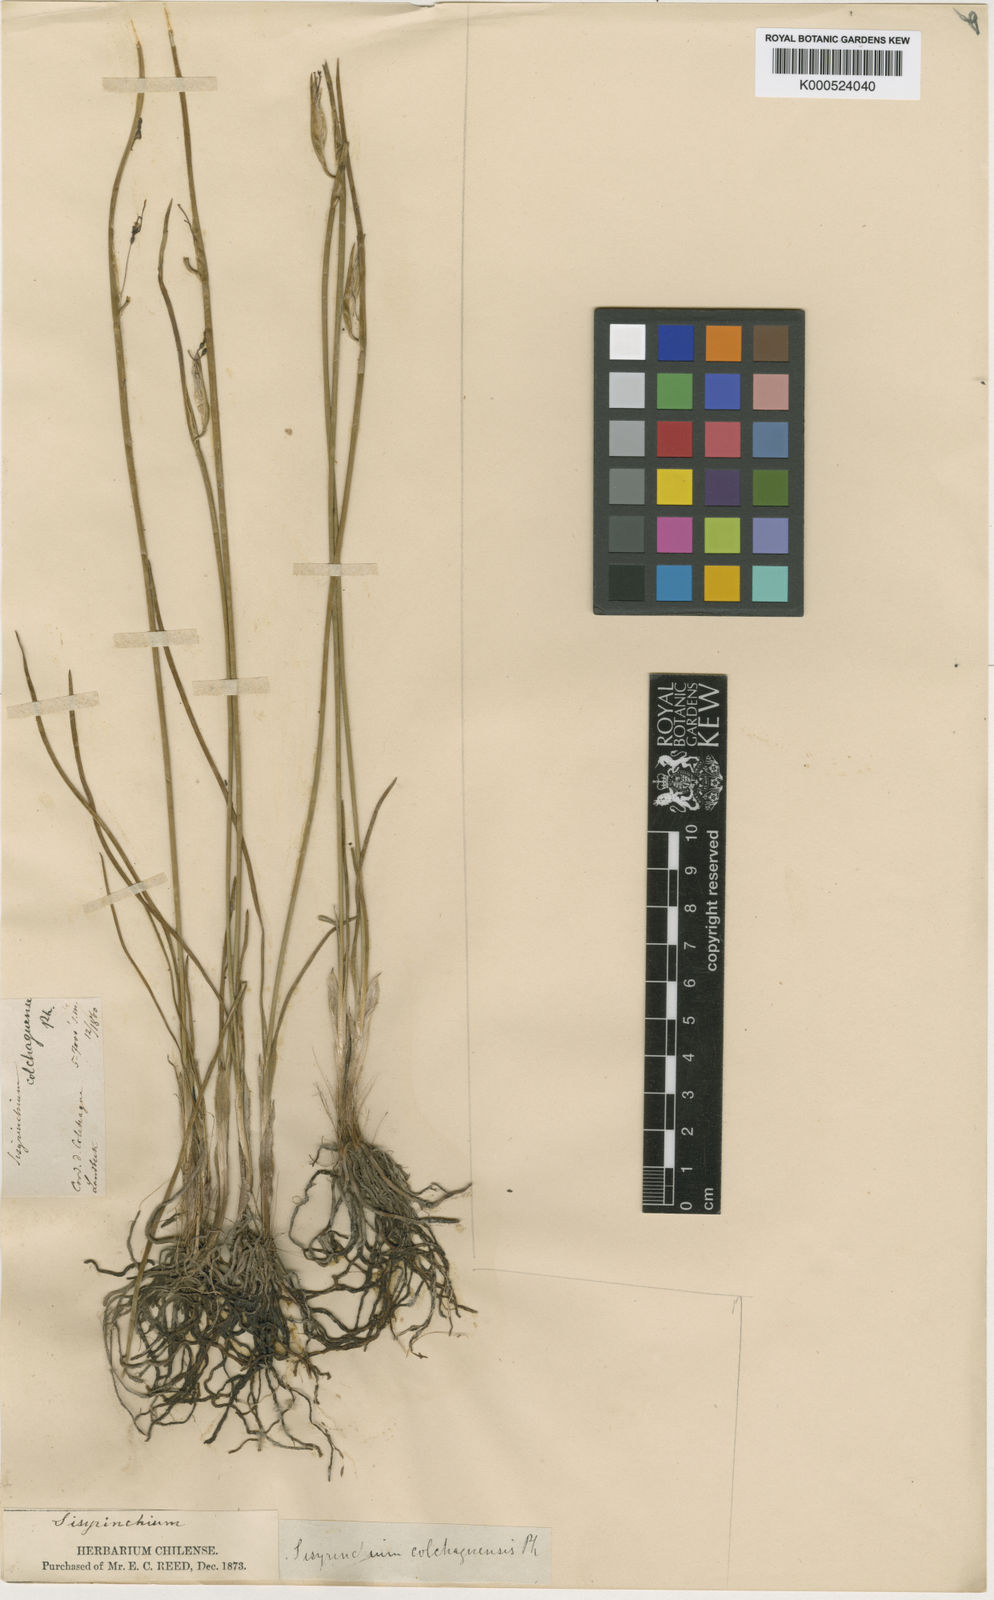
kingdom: Plantae
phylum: Tracheophyta
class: Liliopsida
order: Asparagales
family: Iridaceae
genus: Olsynium
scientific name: Olsynium junceum
